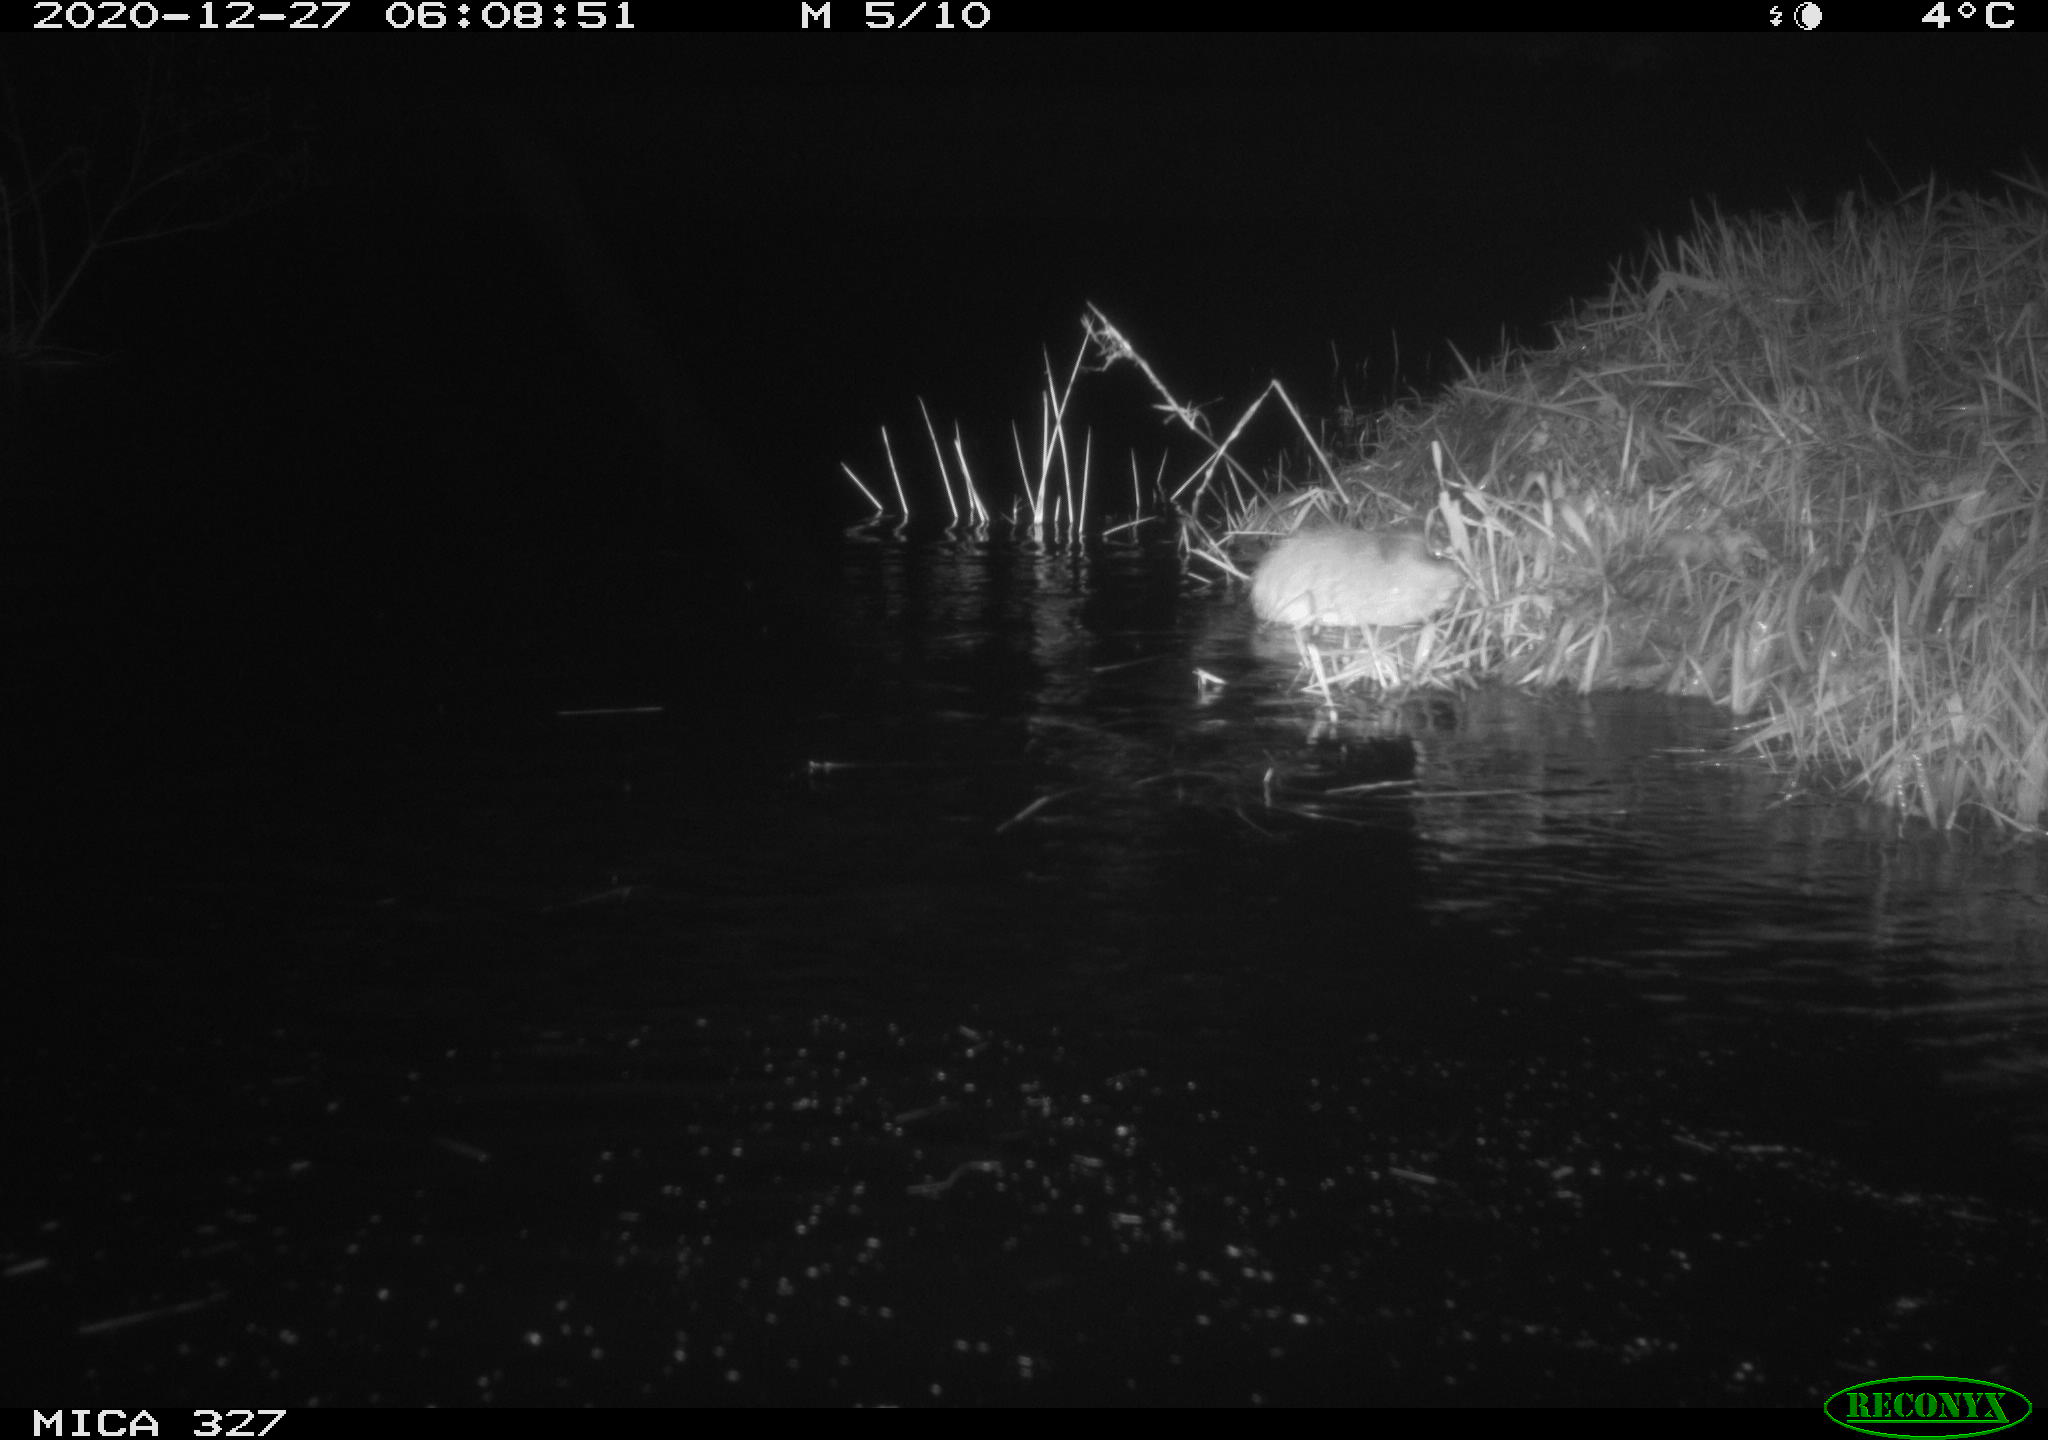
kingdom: Animalia
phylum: Chordata
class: Mammalia
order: Rodentia
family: Cricetidae
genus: Ondatra
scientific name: Ondatra zibethicus
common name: Muskrat
